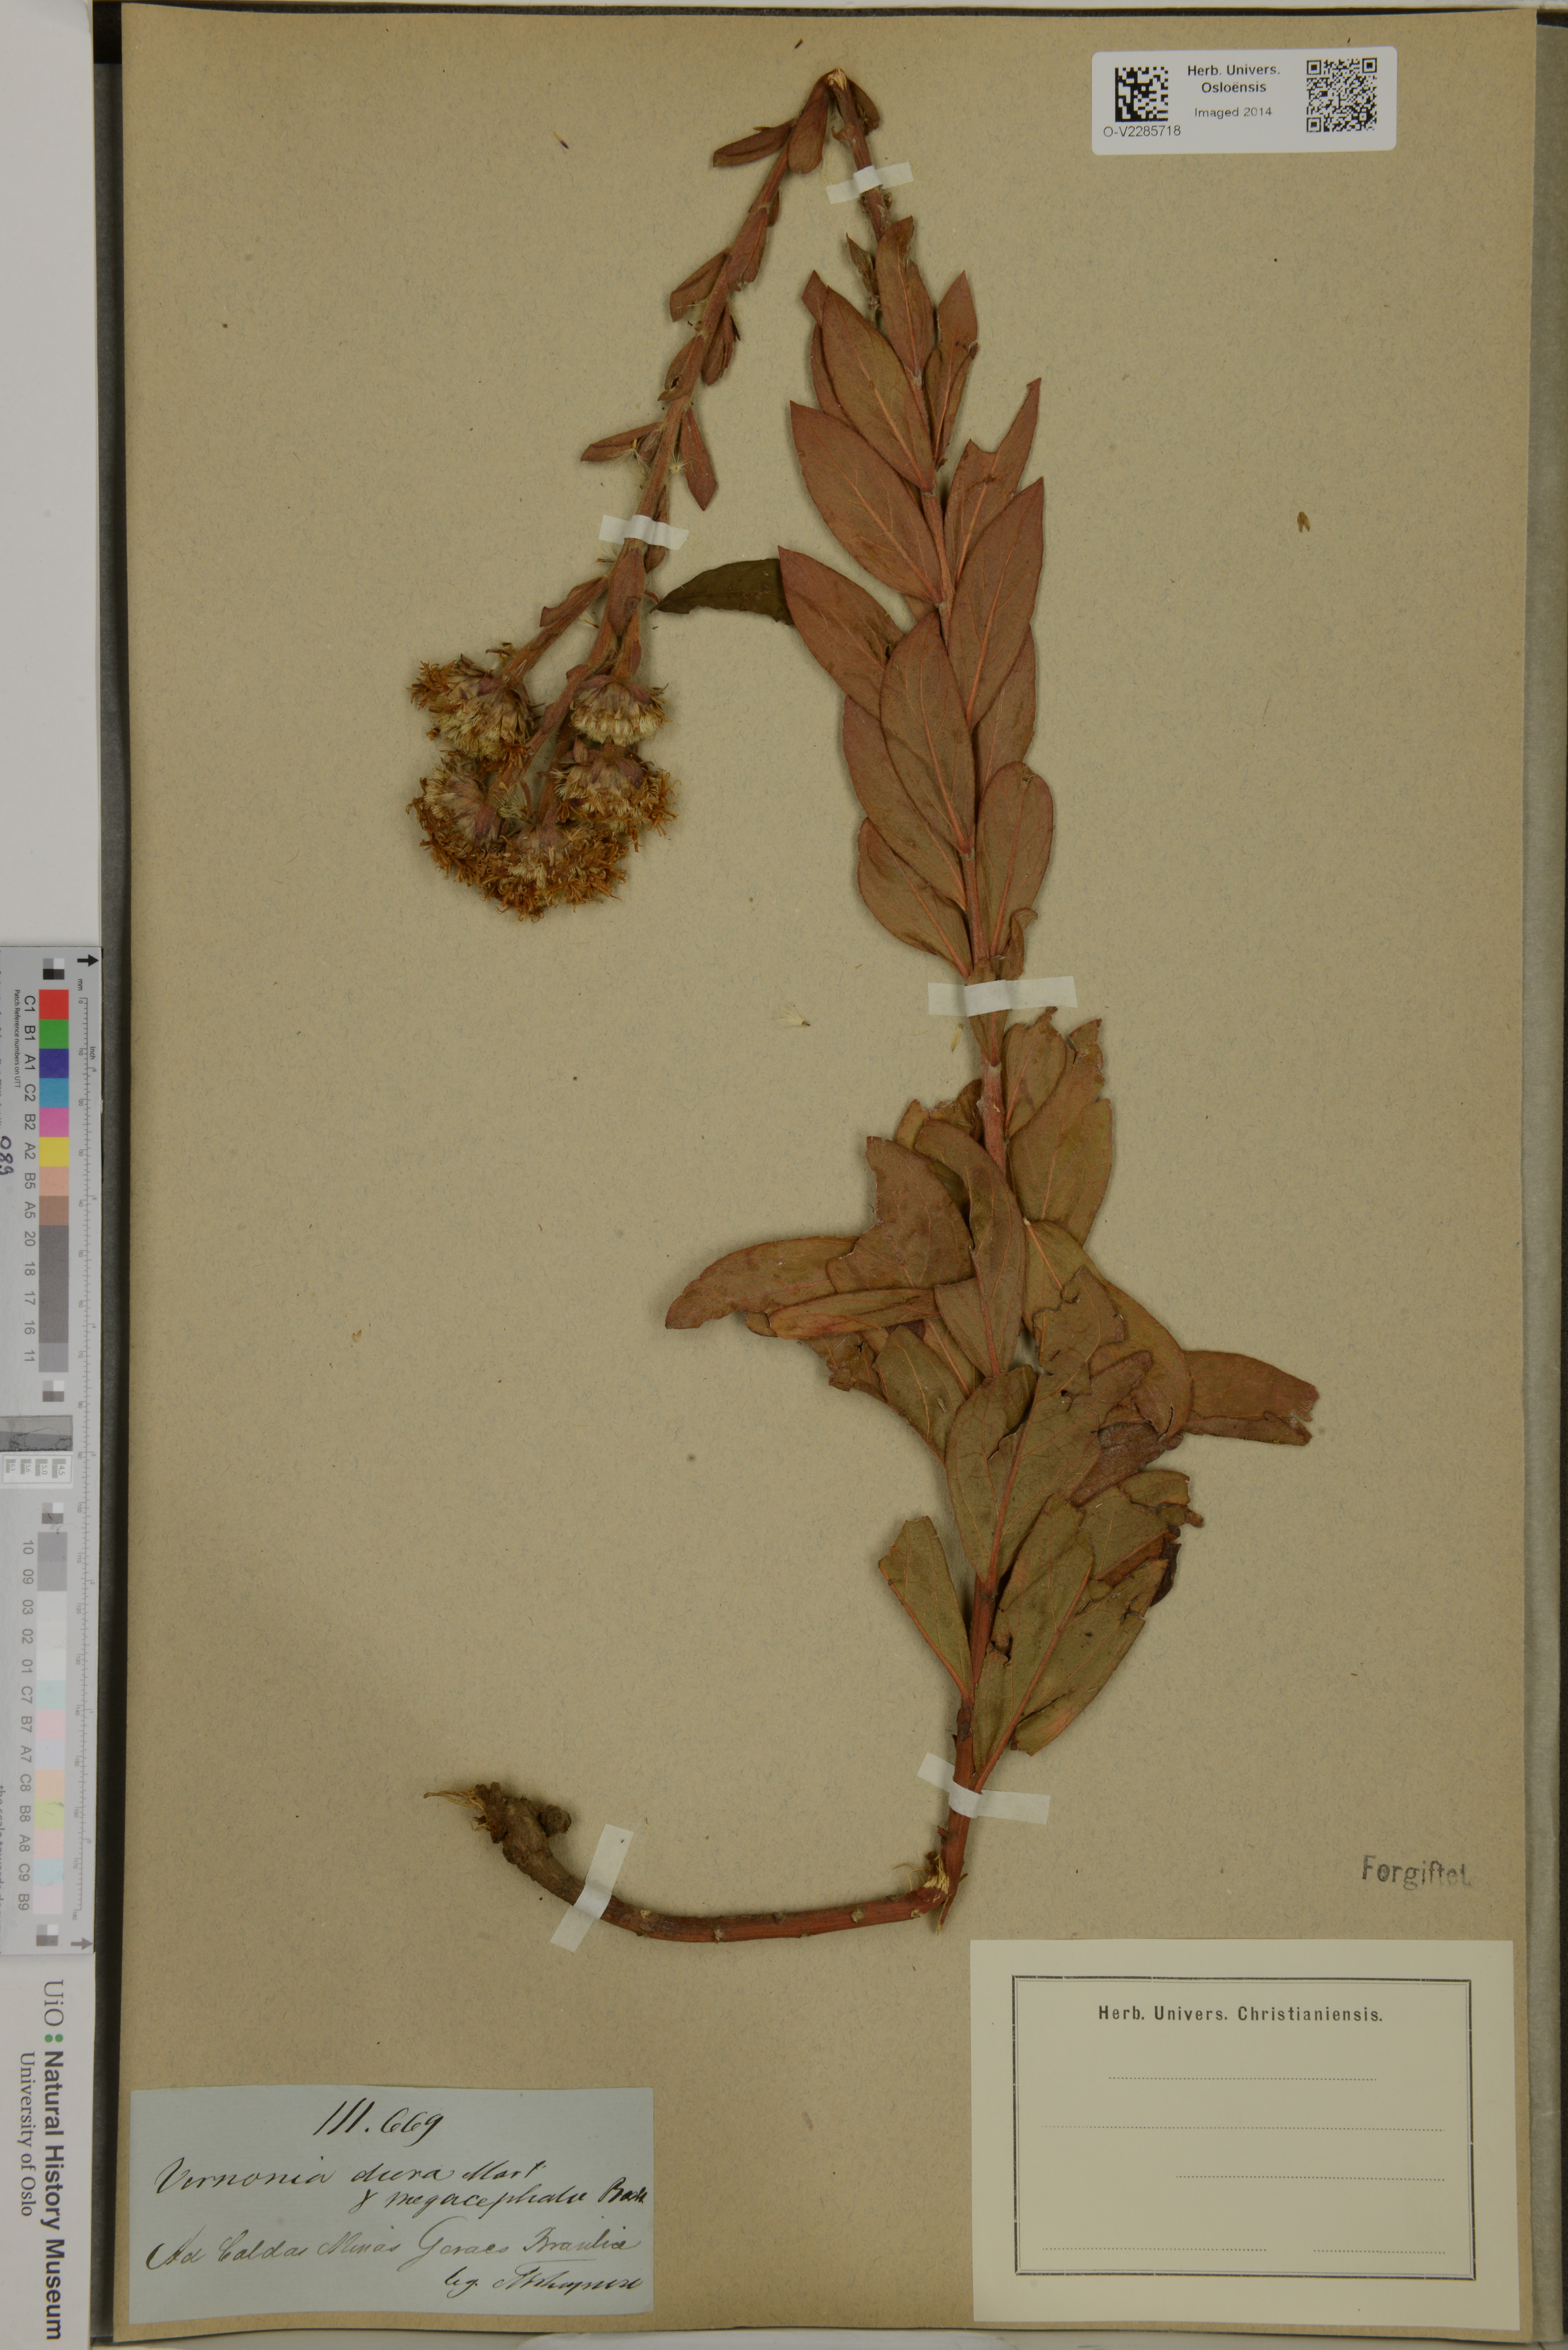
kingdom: Plantae
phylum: Tracheophyta
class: Magnoliopsida
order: Asterales
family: Asteraceae
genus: Lessingianthus
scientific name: Lessingianthus durus
